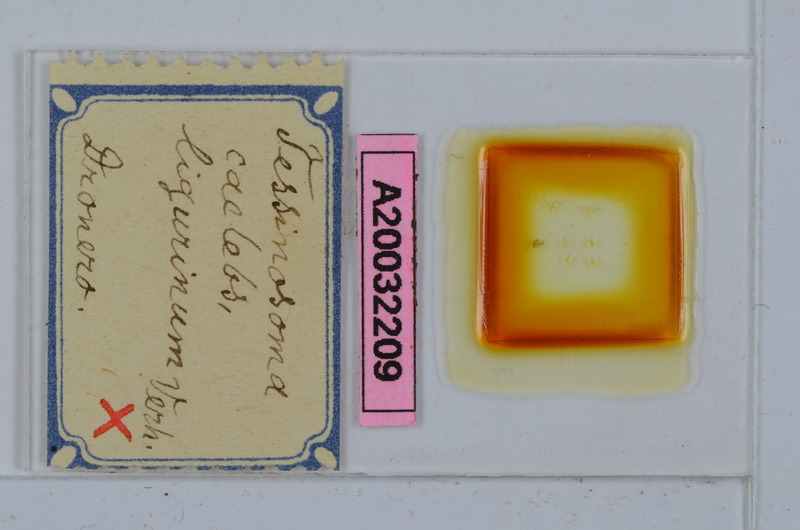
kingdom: Animalia
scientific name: Animalia
